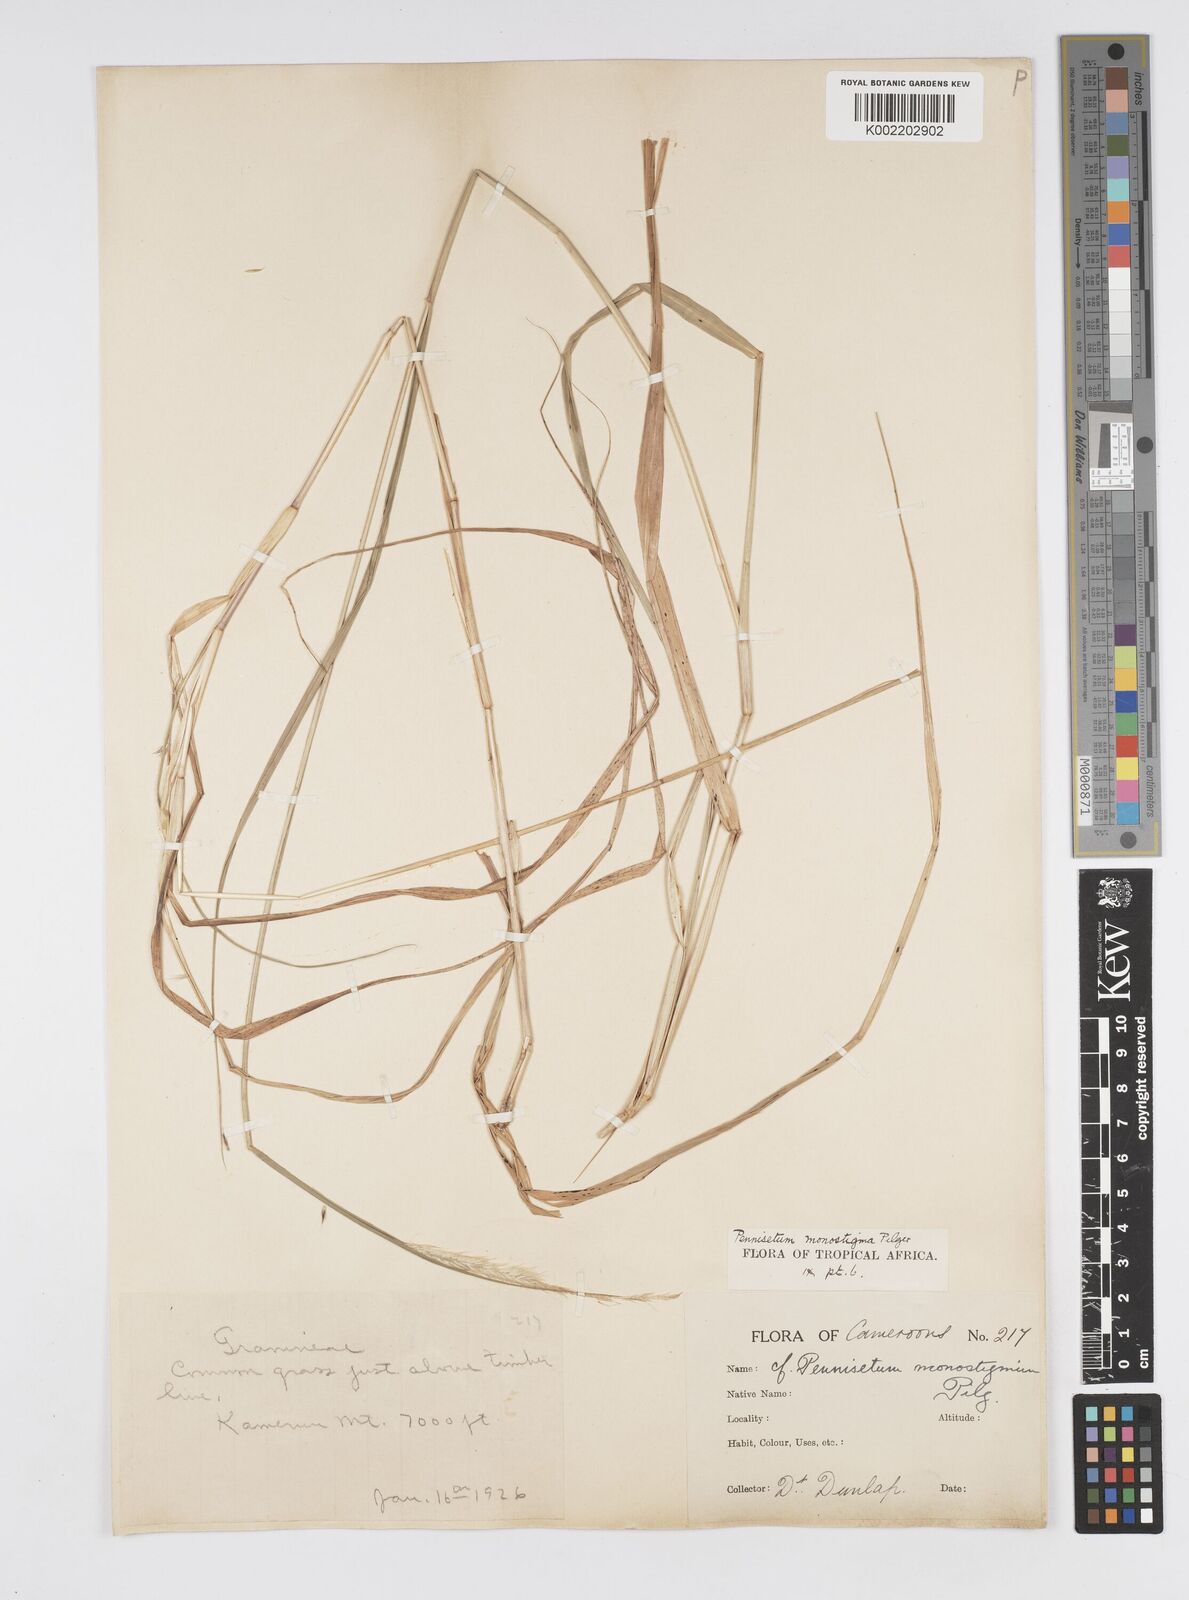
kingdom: Plantae
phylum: Tracheophyta
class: Liliopsida
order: Poales
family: Poaceae
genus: Cenchrus
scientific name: Cenchrus monostigma
